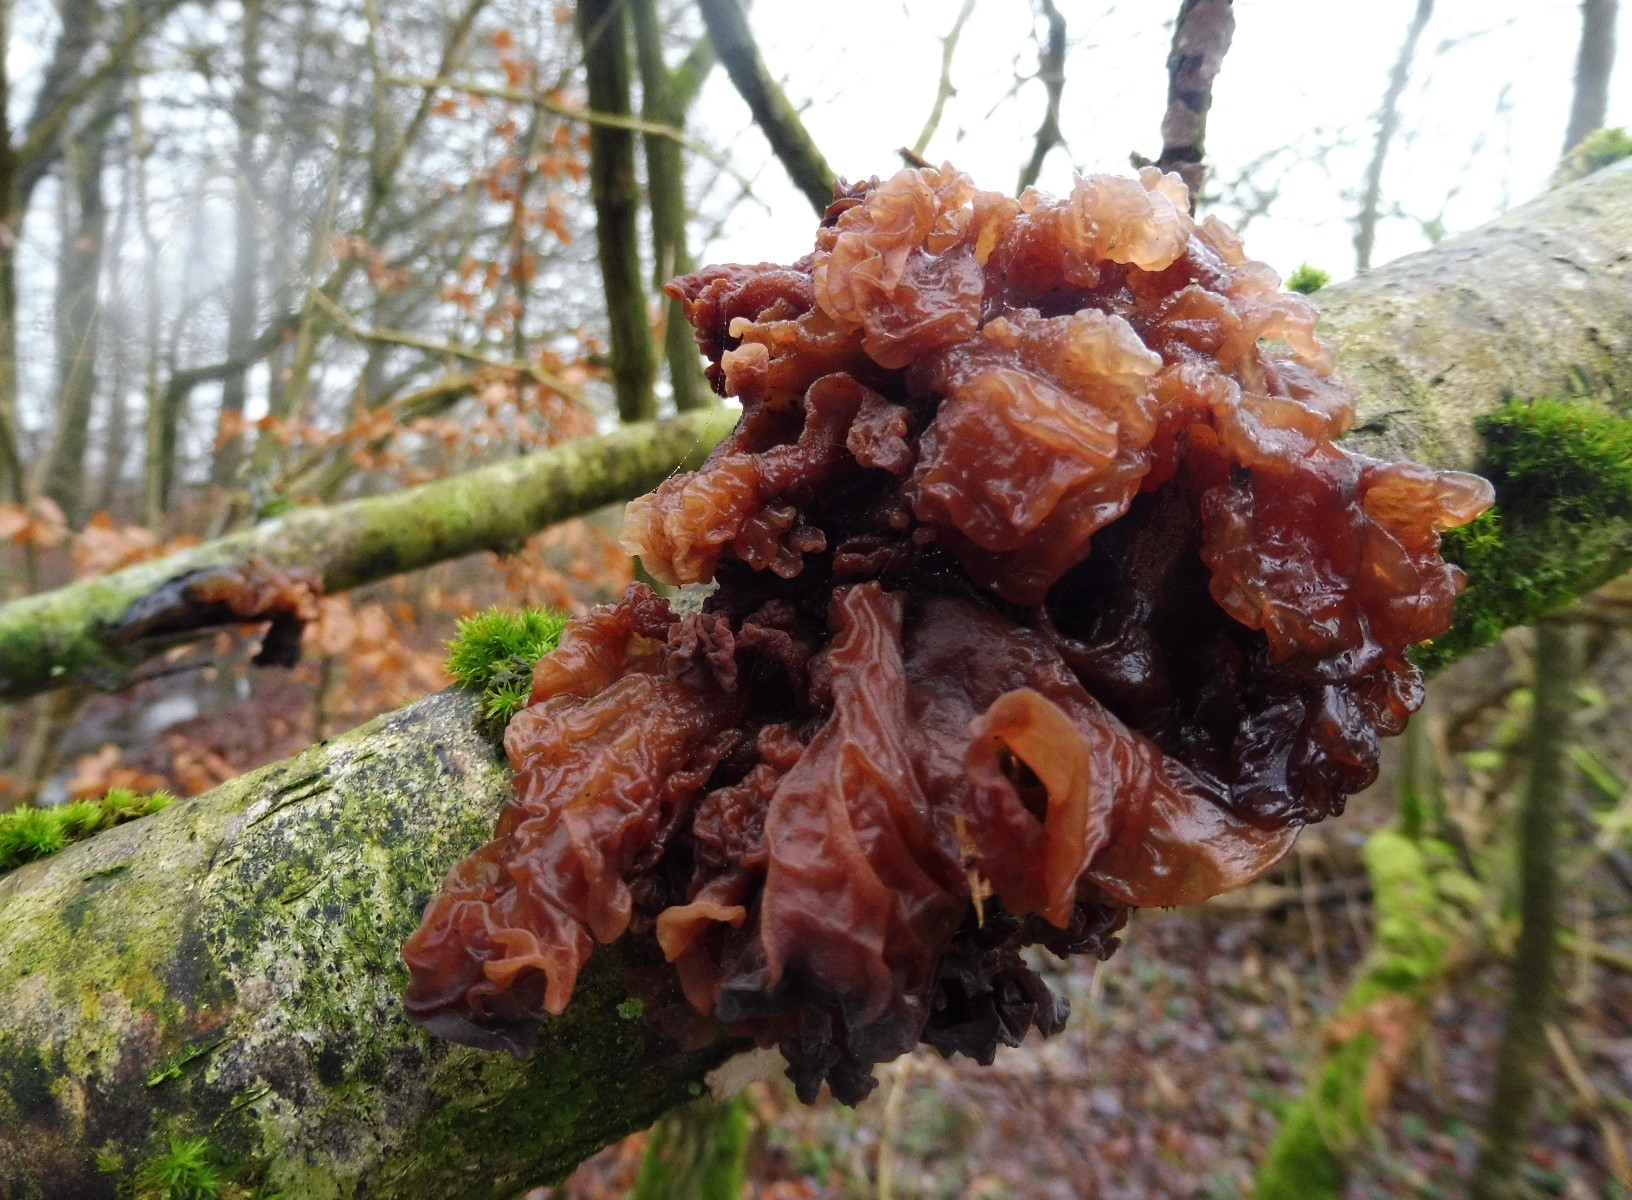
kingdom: Fungi
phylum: Basidiomycota
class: Tremellomycetes
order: Tremellales
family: Tremellaceae
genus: Phaeotremella
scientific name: Phaeotremella frondosa
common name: kæmpe-bævresvamp
